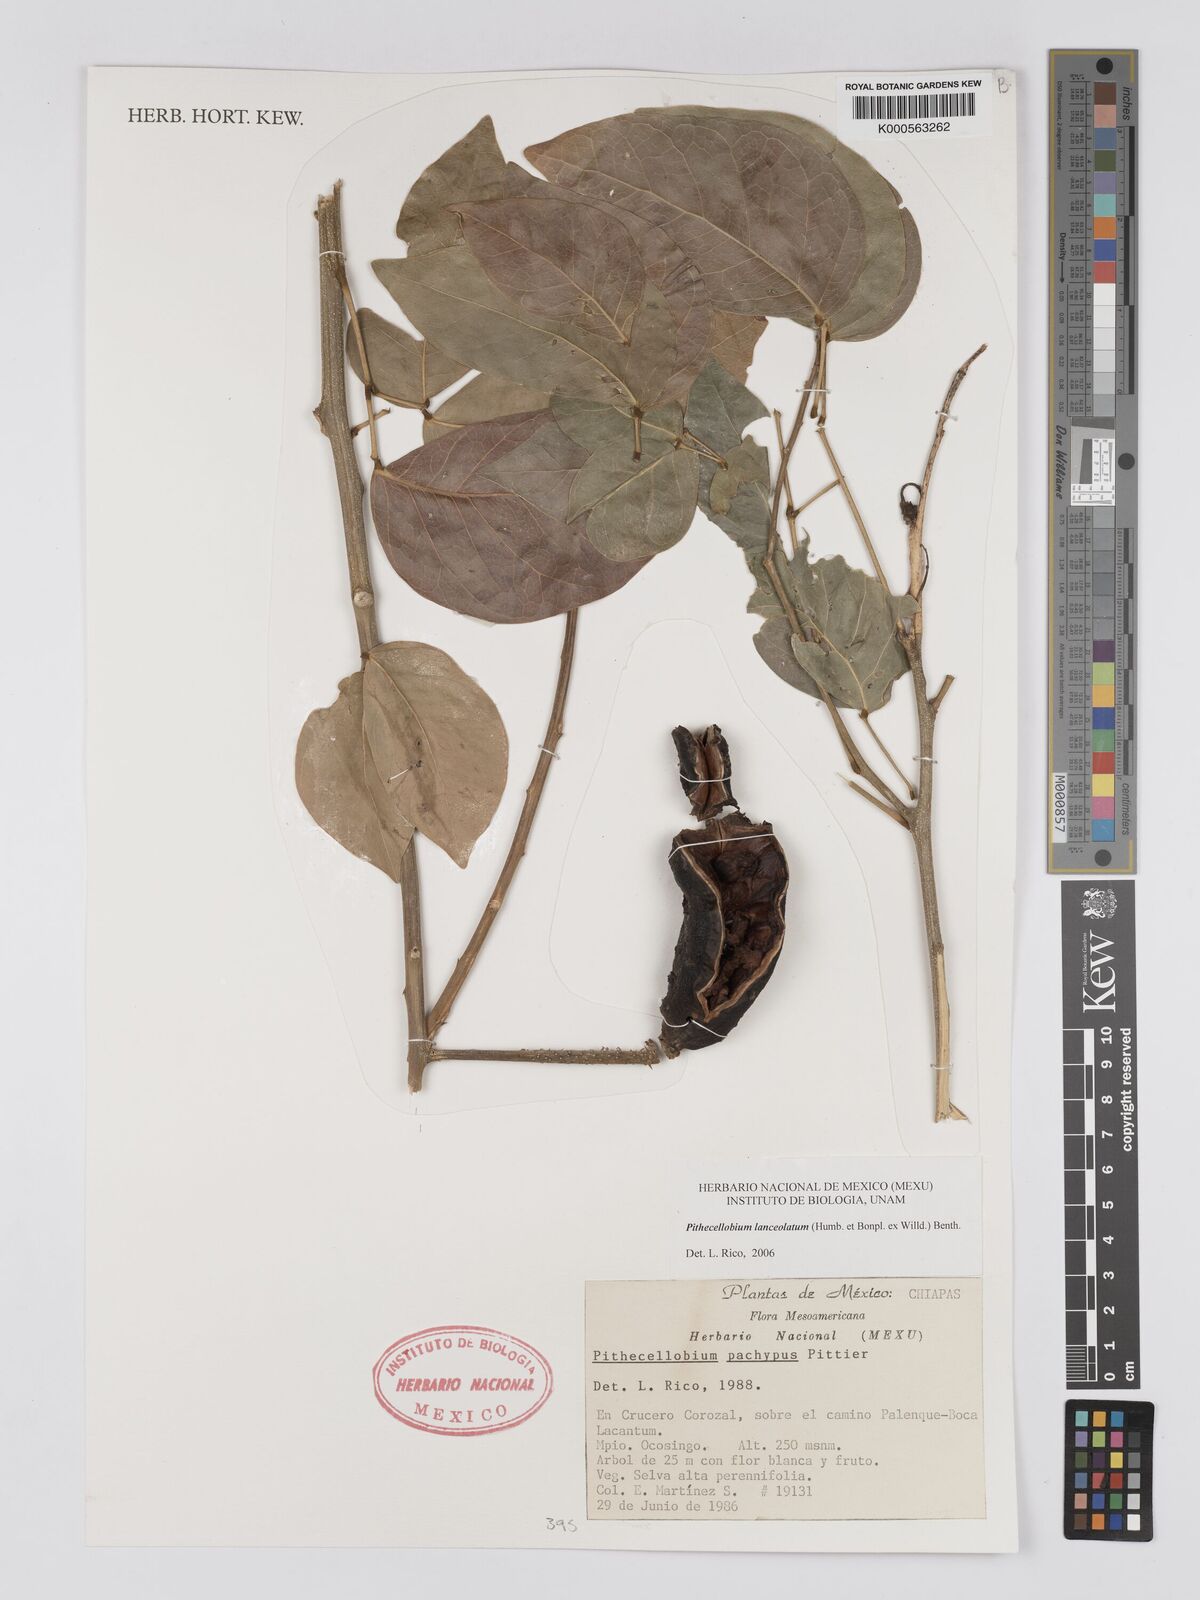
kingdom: Plantae
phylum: Tracheophyta
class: Magnoliopsida
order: Fabales
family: Fabaceae
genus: Pithecellobium
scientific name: Pithecellobium lanceolatum
